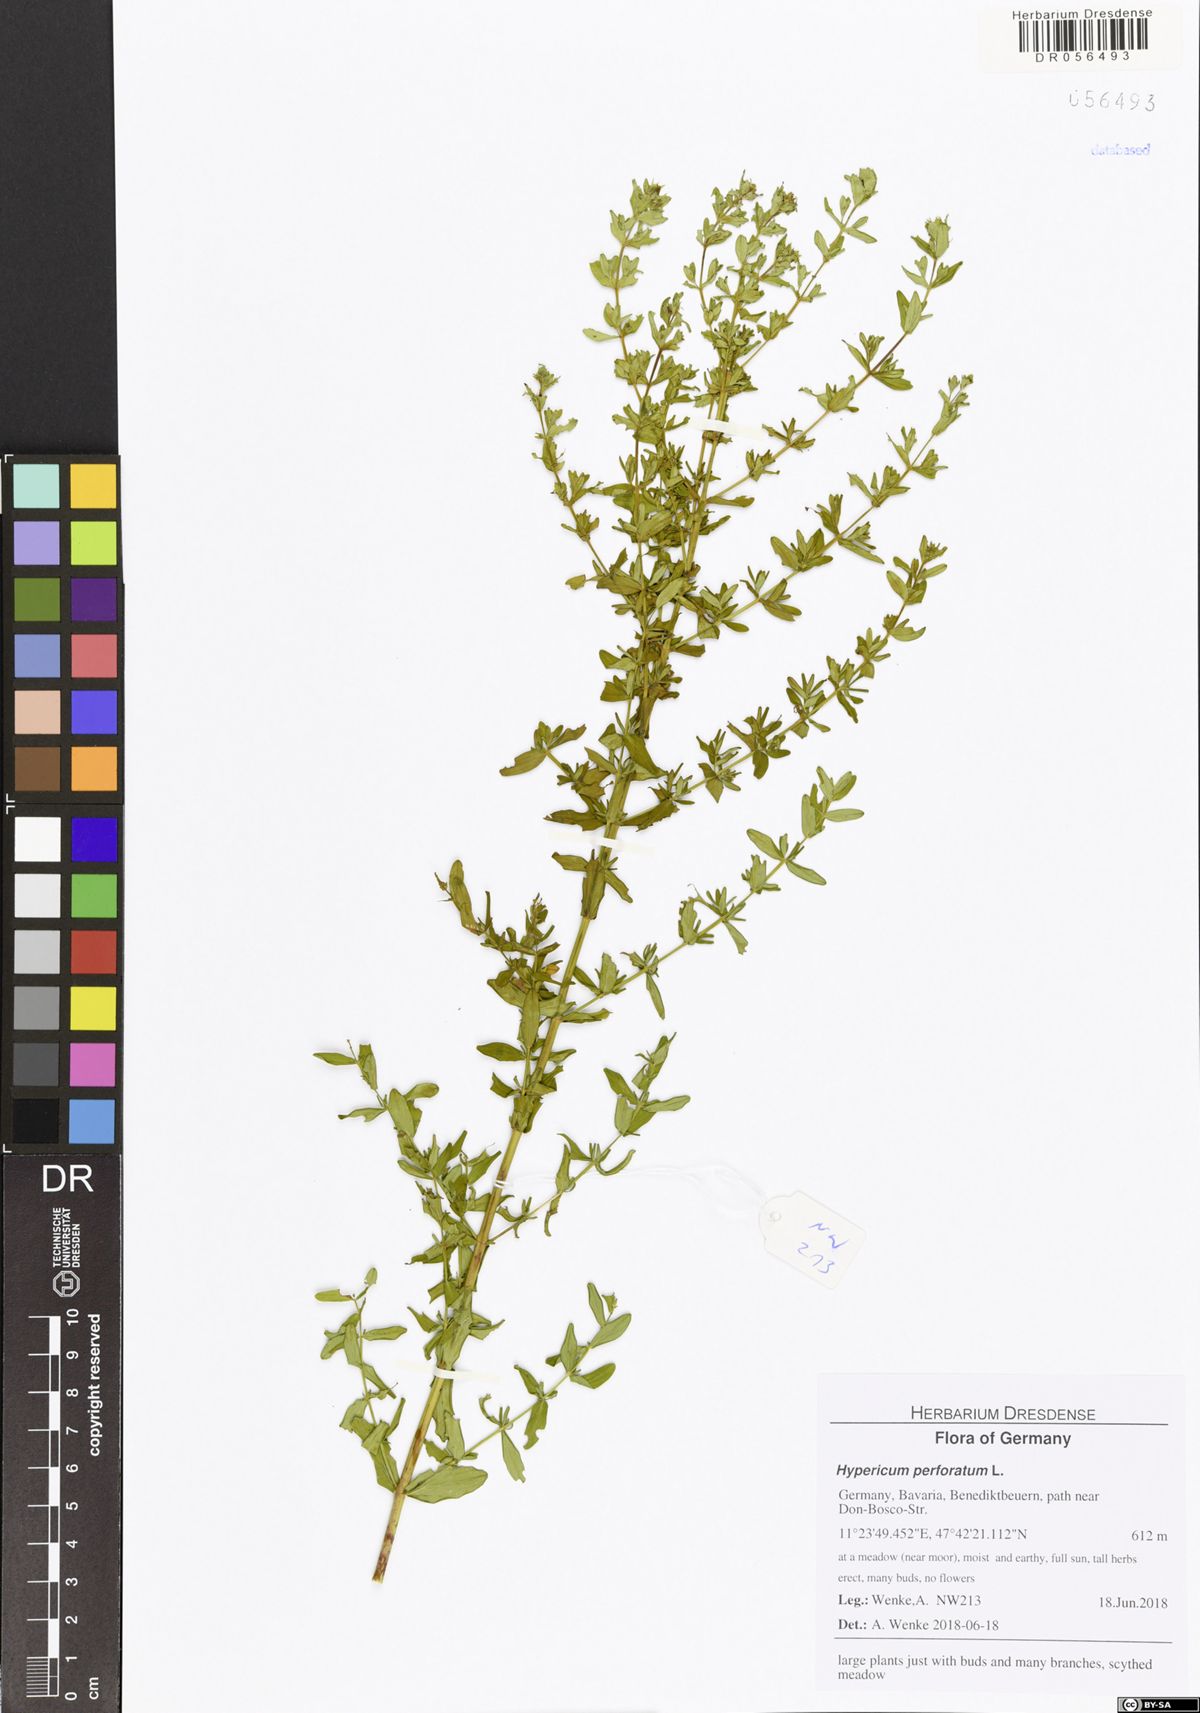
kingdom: Plantae
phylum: Tracheophyta
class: Magnoliopsida
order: Malpighiales
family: Hypericaceae
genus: Hypericum
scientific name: Hypericum perforatum
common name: Common st. johnswort
